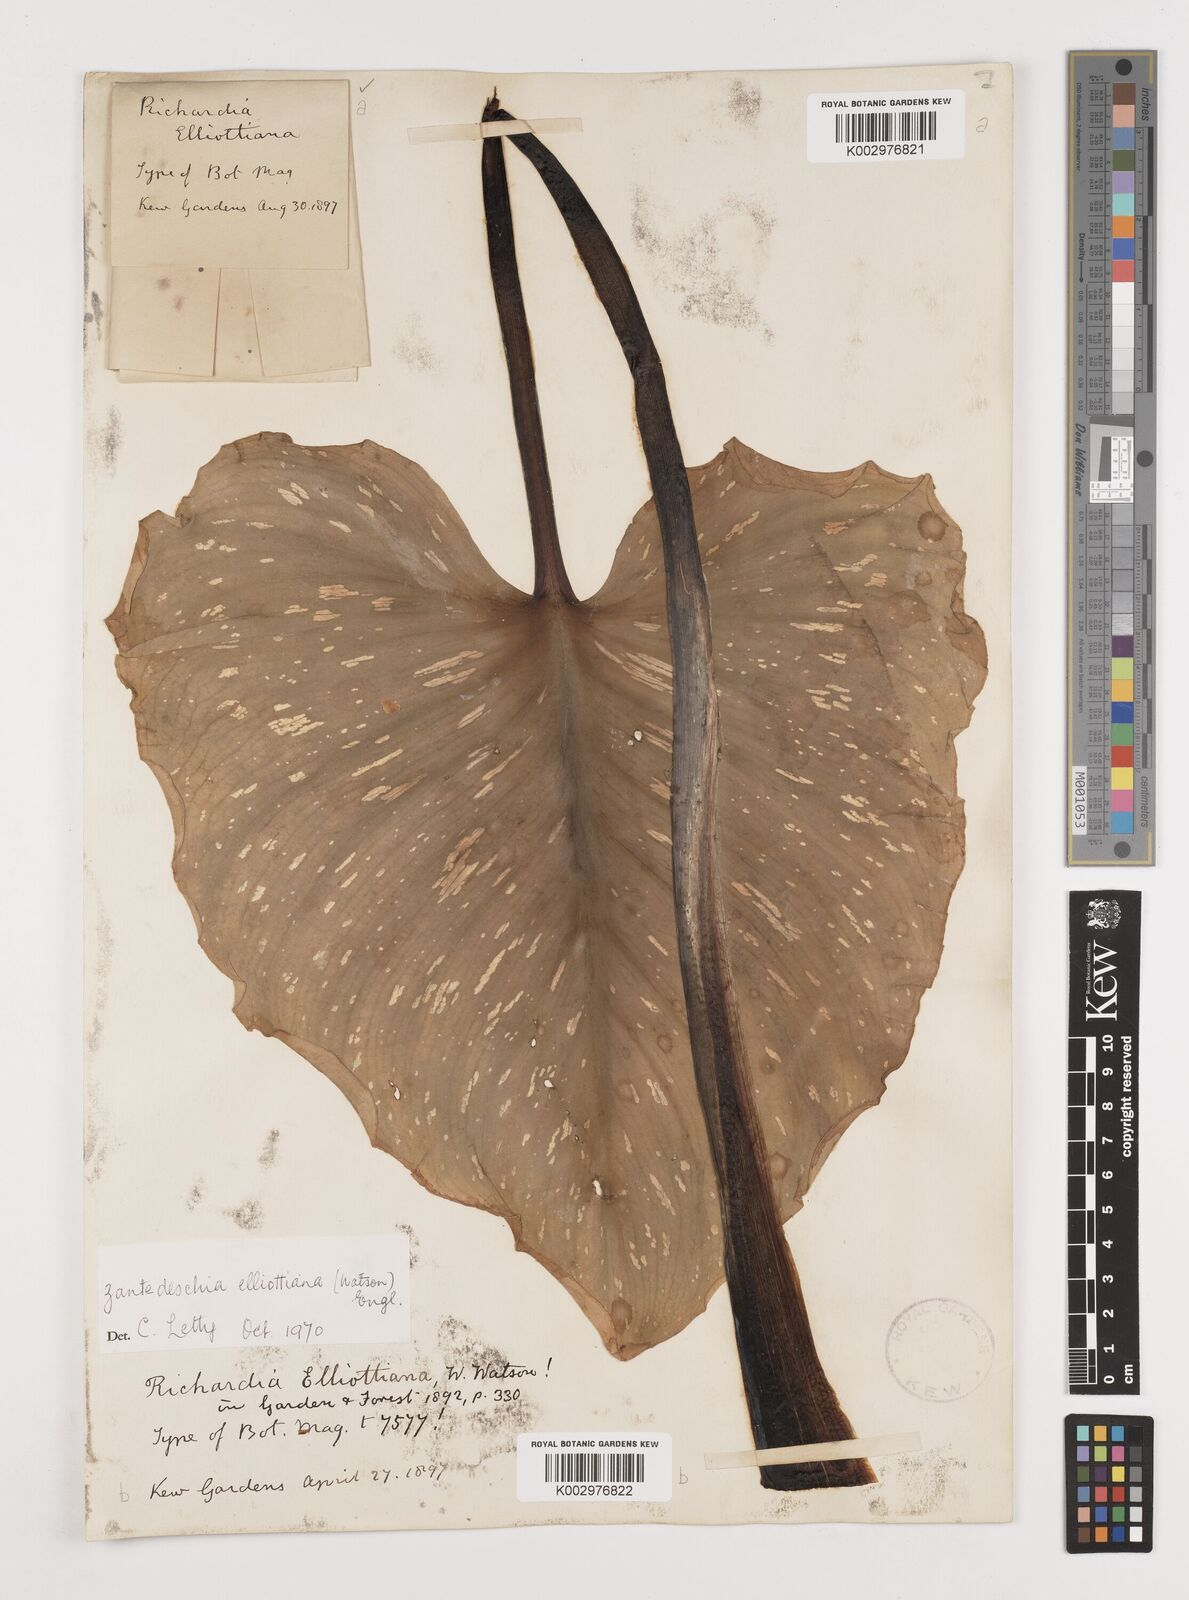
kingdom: Plantae
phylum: Tracheophyta
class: Liliopsida
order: Alismatales
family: Araceae
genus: Zantedeschia
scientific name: Zantedeschia elliottiana
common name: Yellow calla
